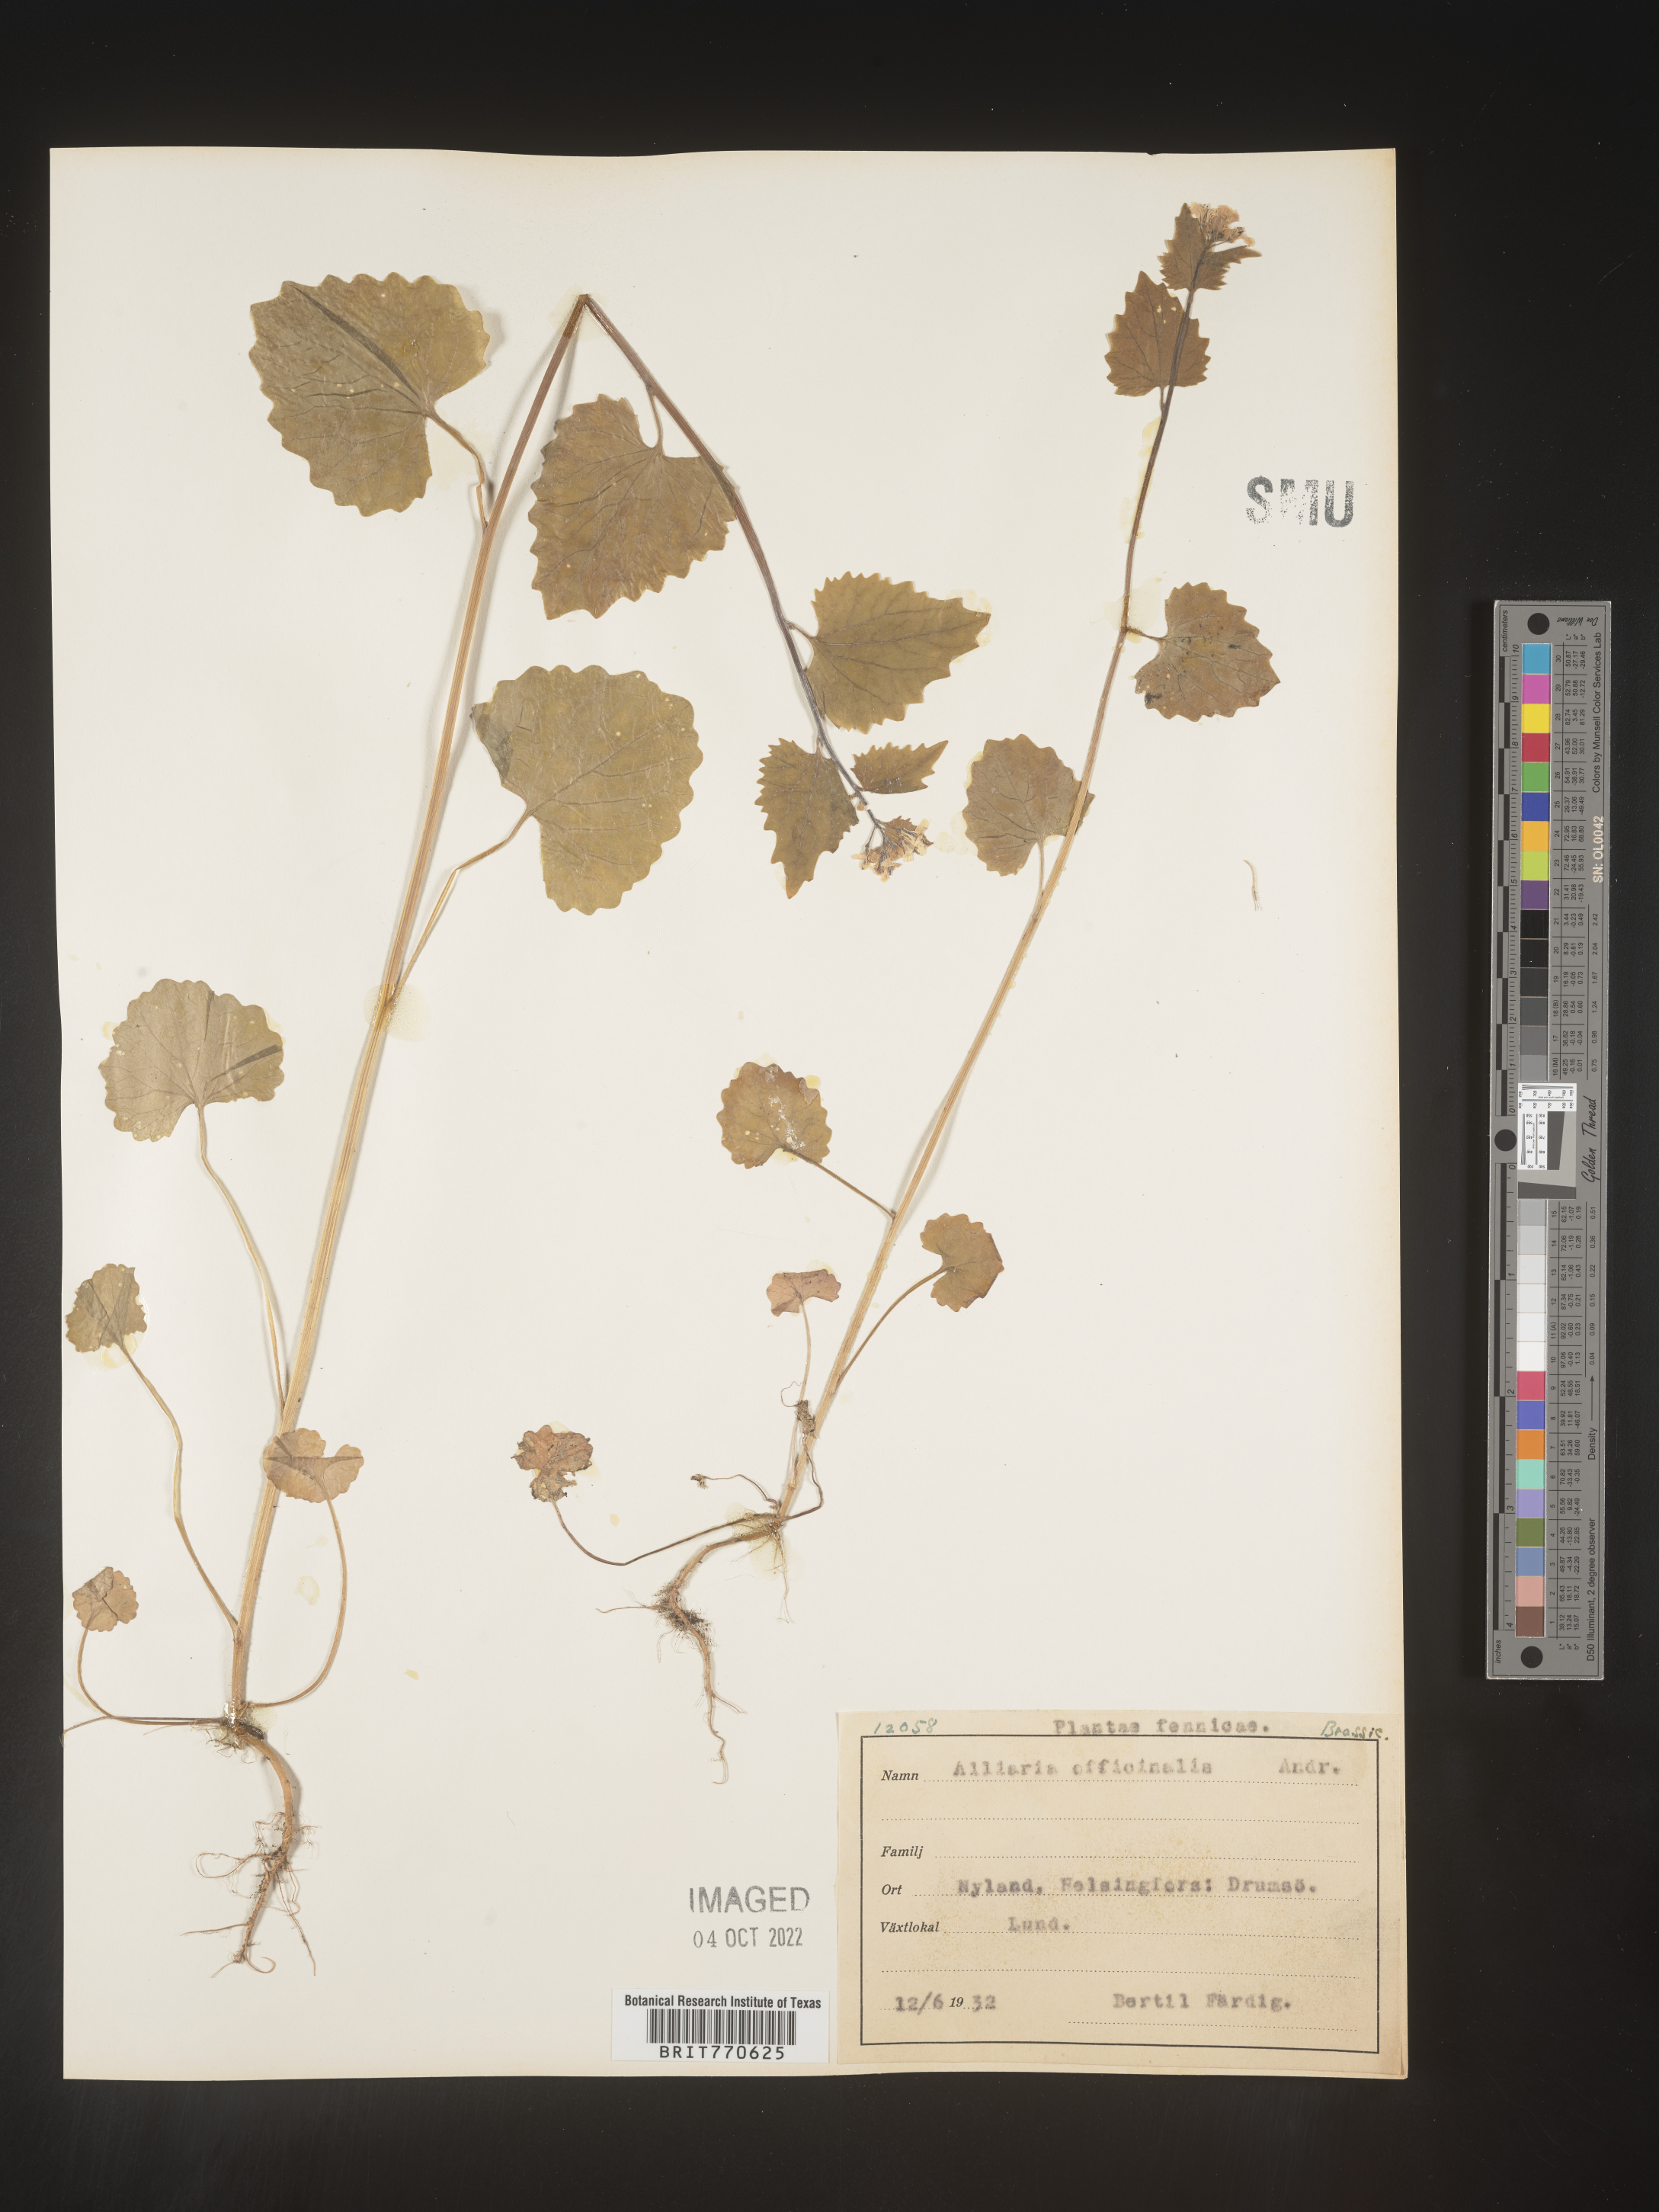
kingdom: Plantae
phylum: Tracheophyta
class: Magnoliopsida
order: Brassicales
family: Brassicaceae
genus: Alliaria
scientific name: Alliaria
